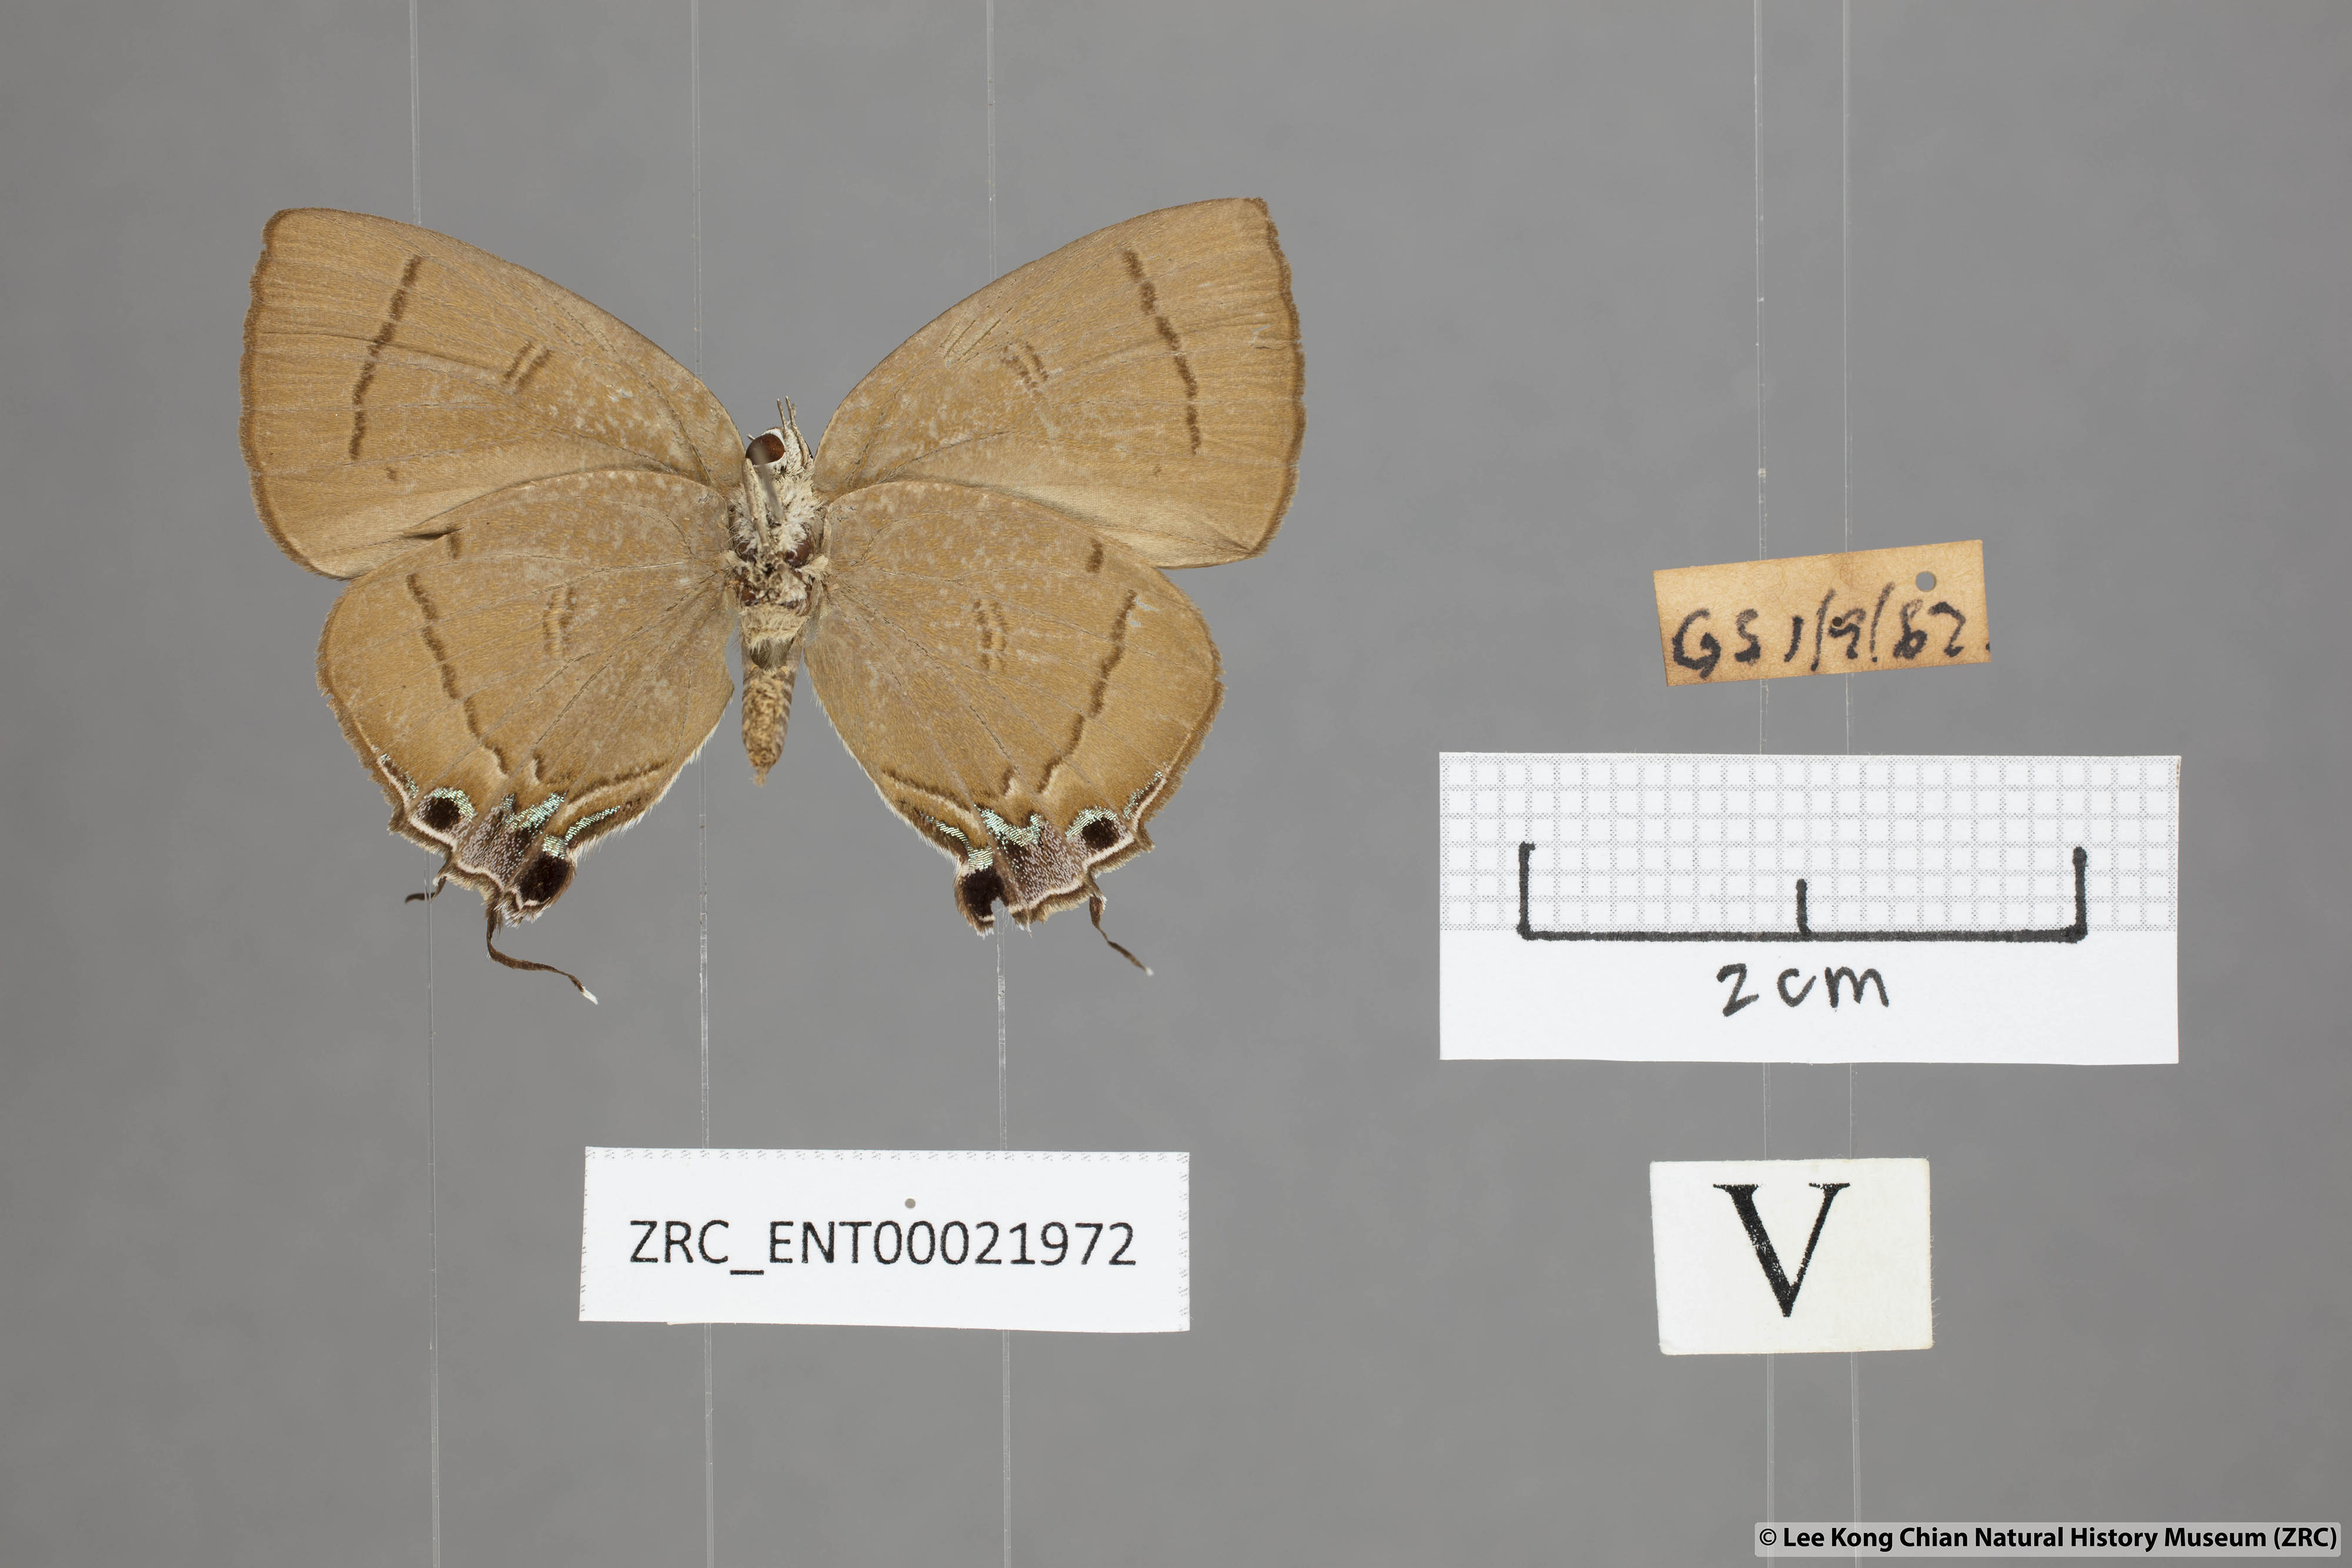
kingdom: Animalia
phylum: Arthropoda
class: Insecta
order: Lepidoptera
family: Lycaenidae
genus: Remelana
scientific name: Remelana jangala
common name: Chocolate royal
